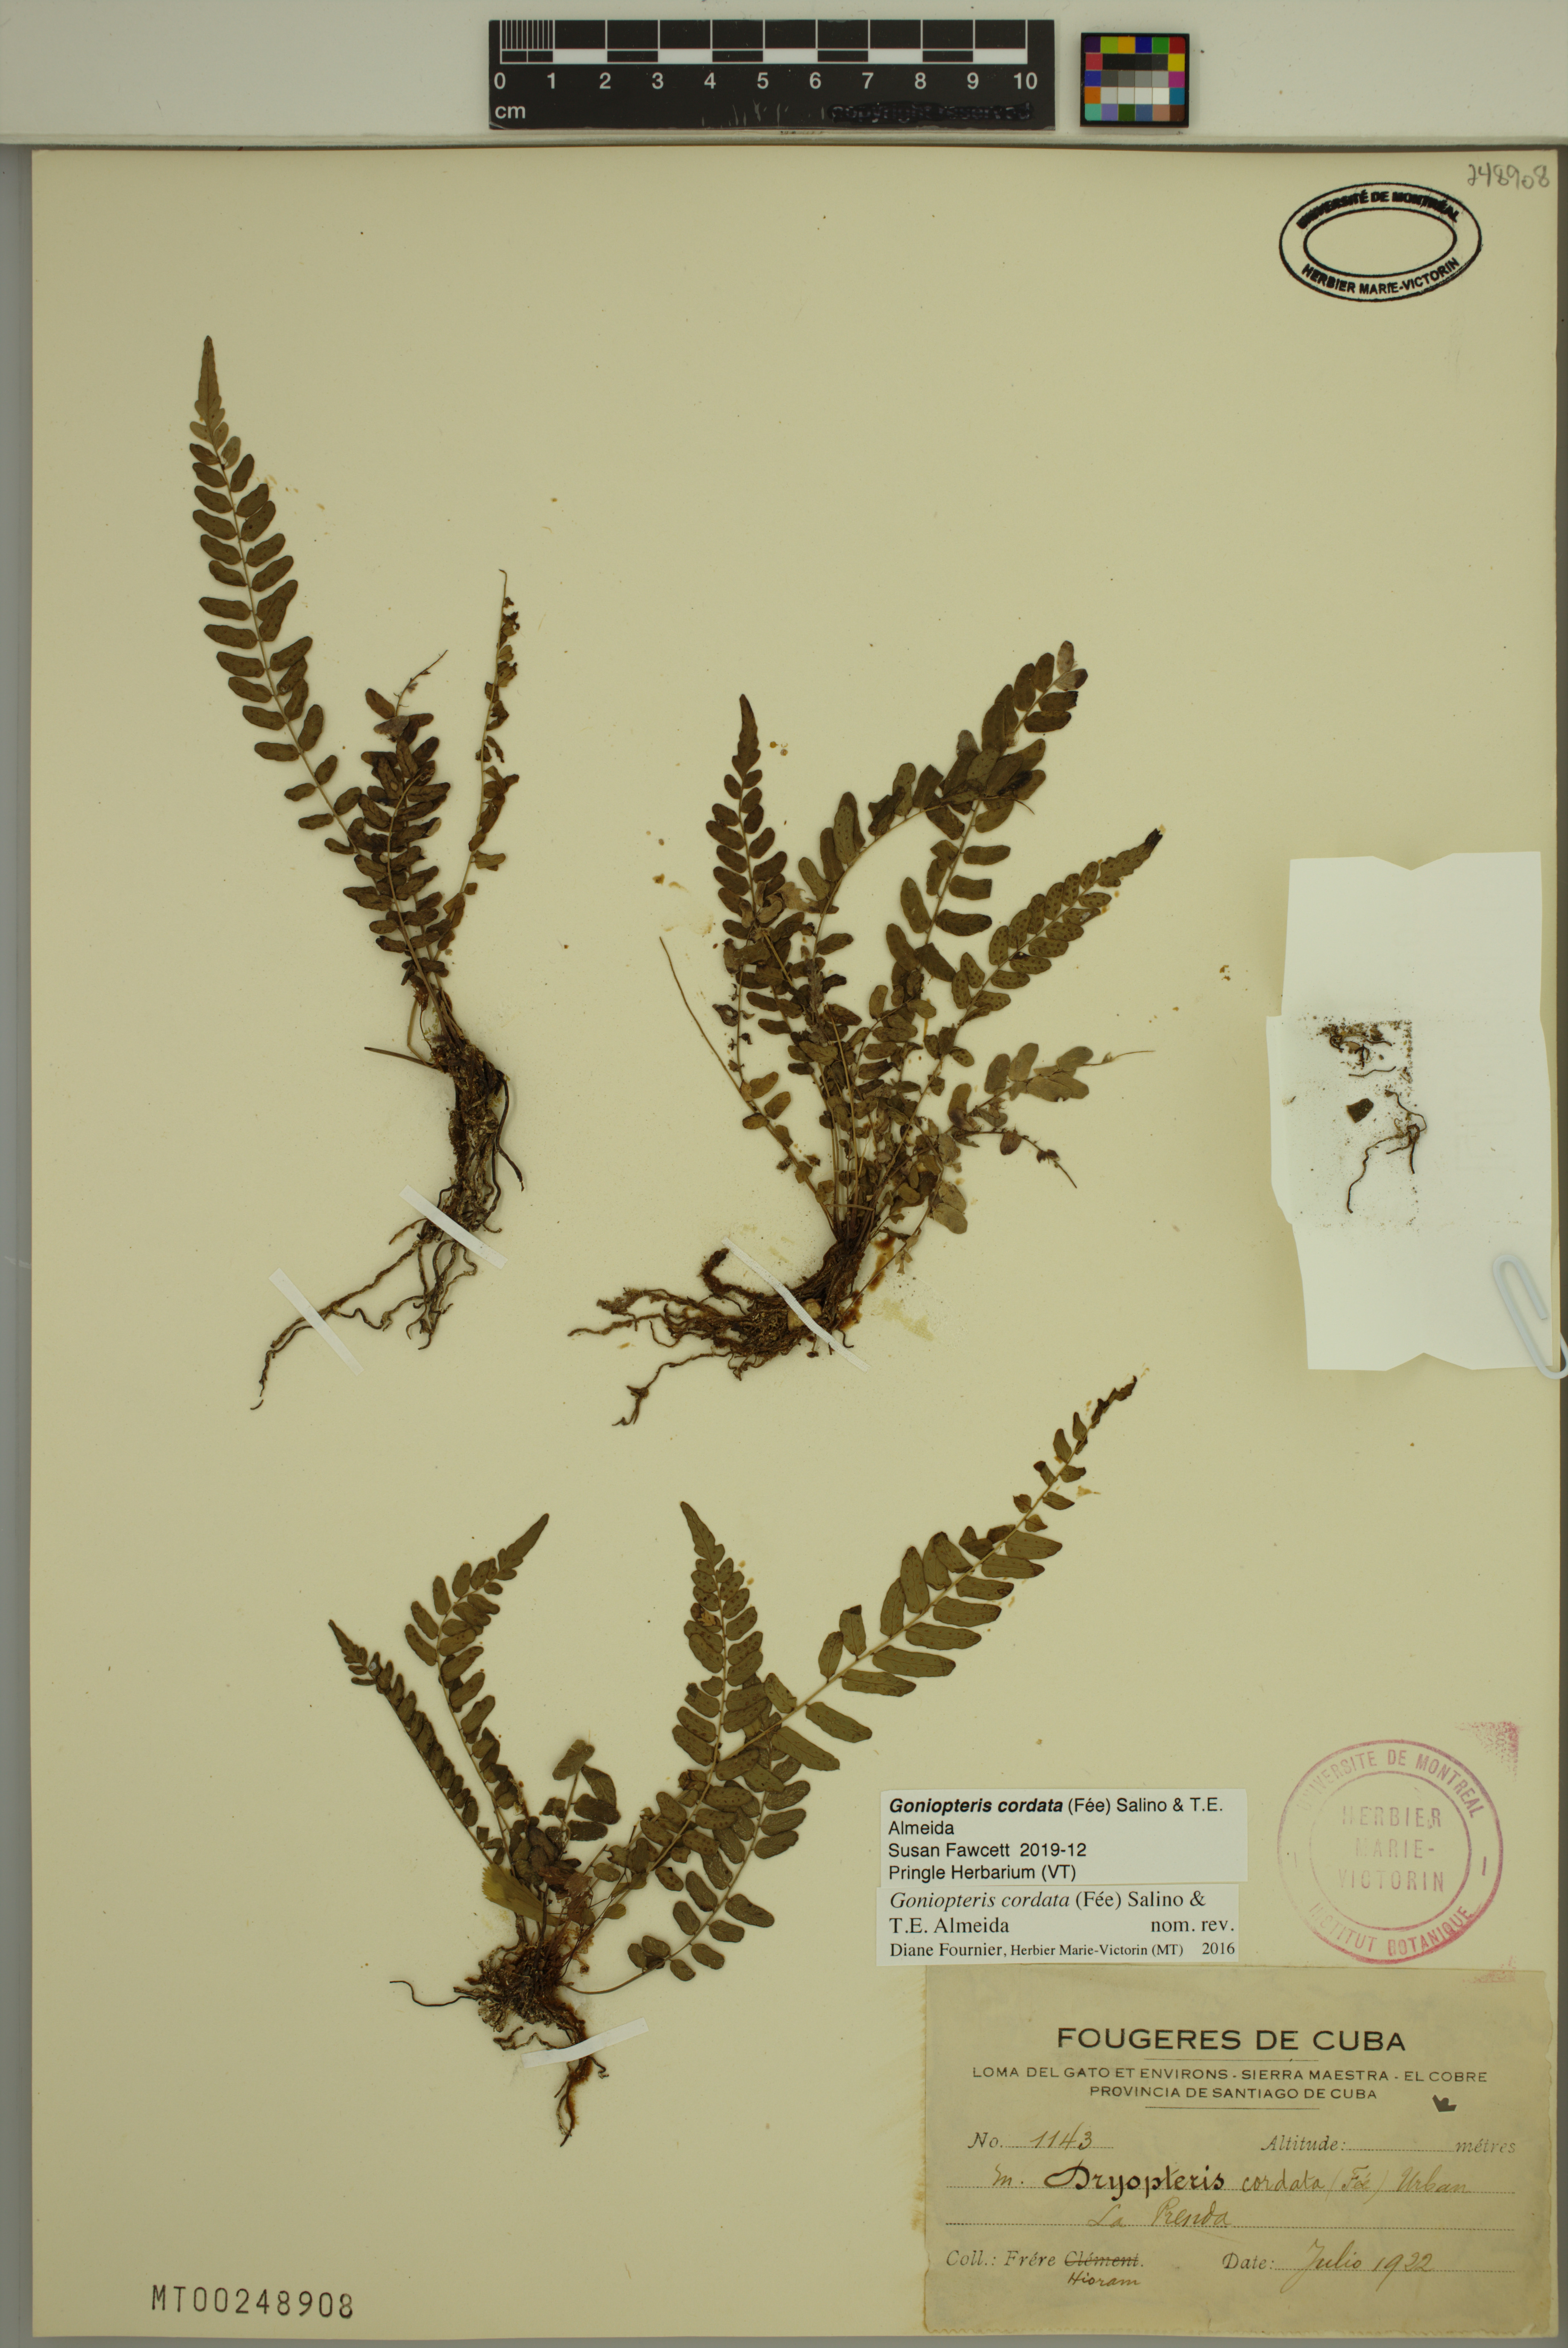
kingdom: Plantae
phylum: Tracheophyta
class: Polypodiopsida
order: Polypodiales
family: Thelypteridaceae
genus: Goniopteris
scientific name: Goniopteris cordata
